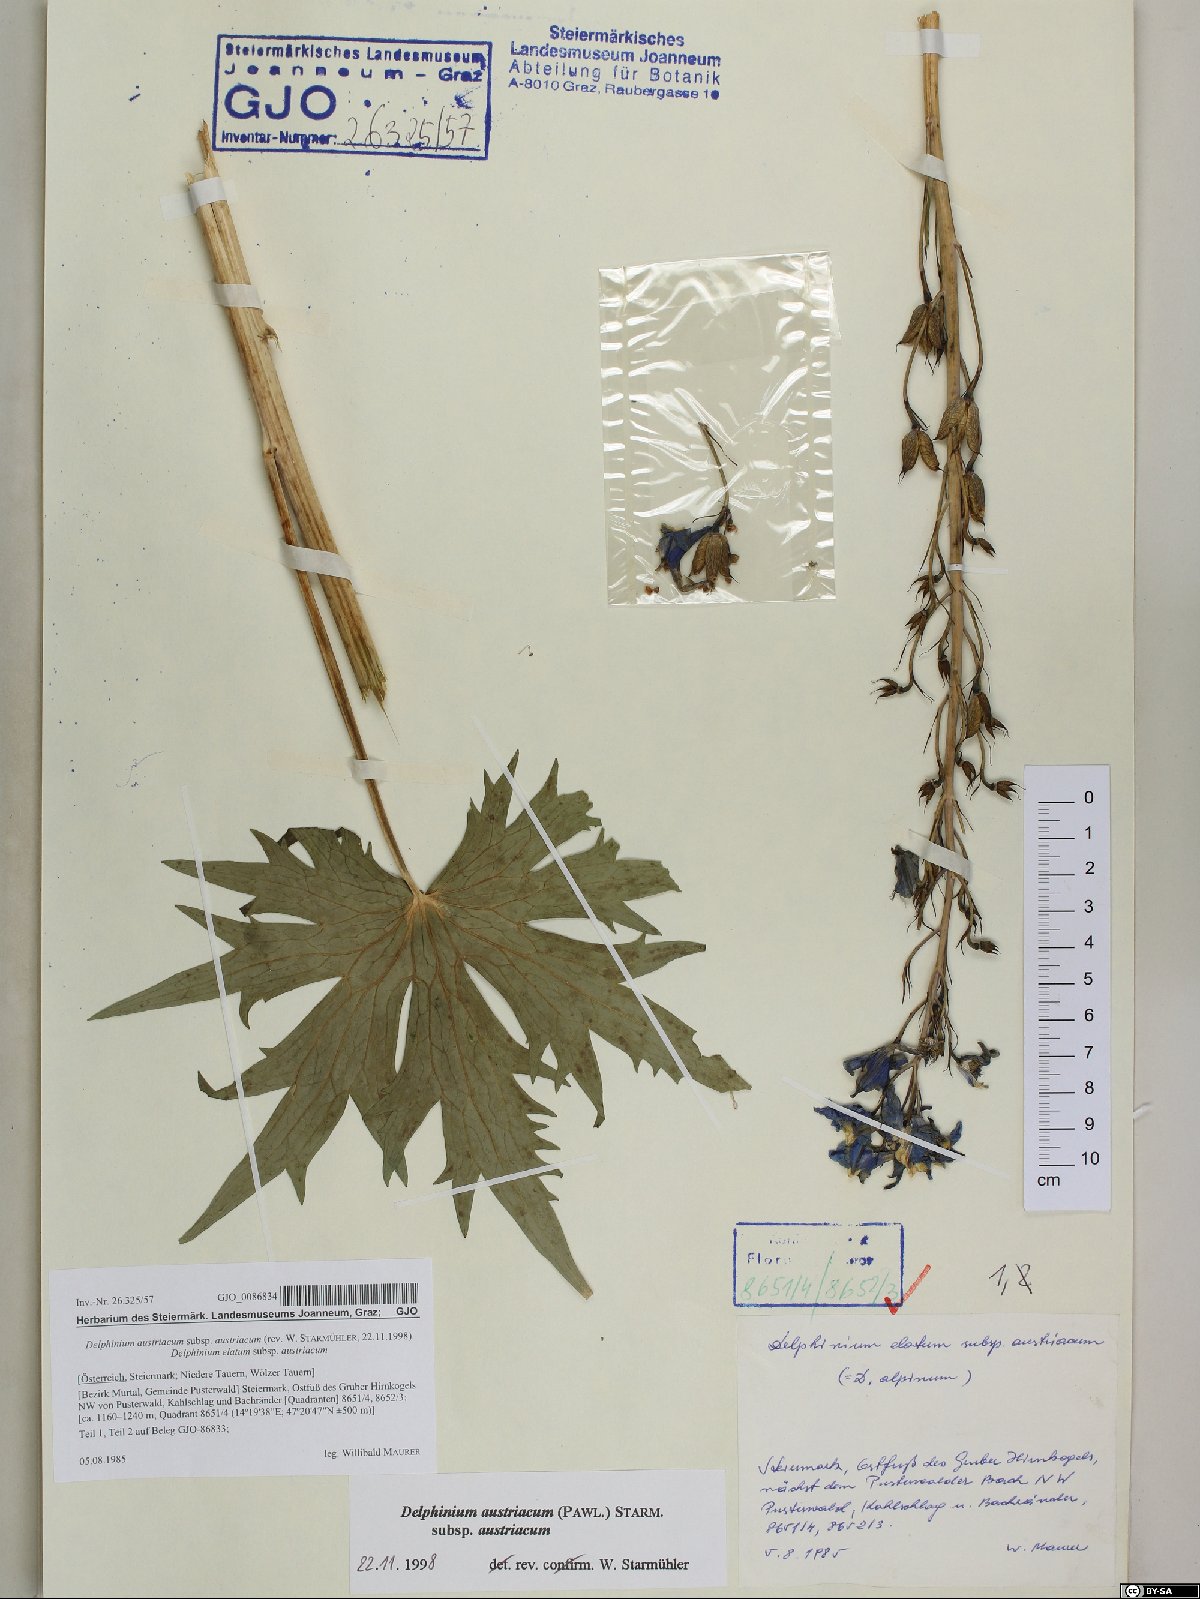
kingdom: Plantae
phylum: Tracheophyta
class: Magnoliopsida
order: Ranunculales
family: Ranunculaceae
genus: Delphinium
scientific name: Delphinium austriacum
